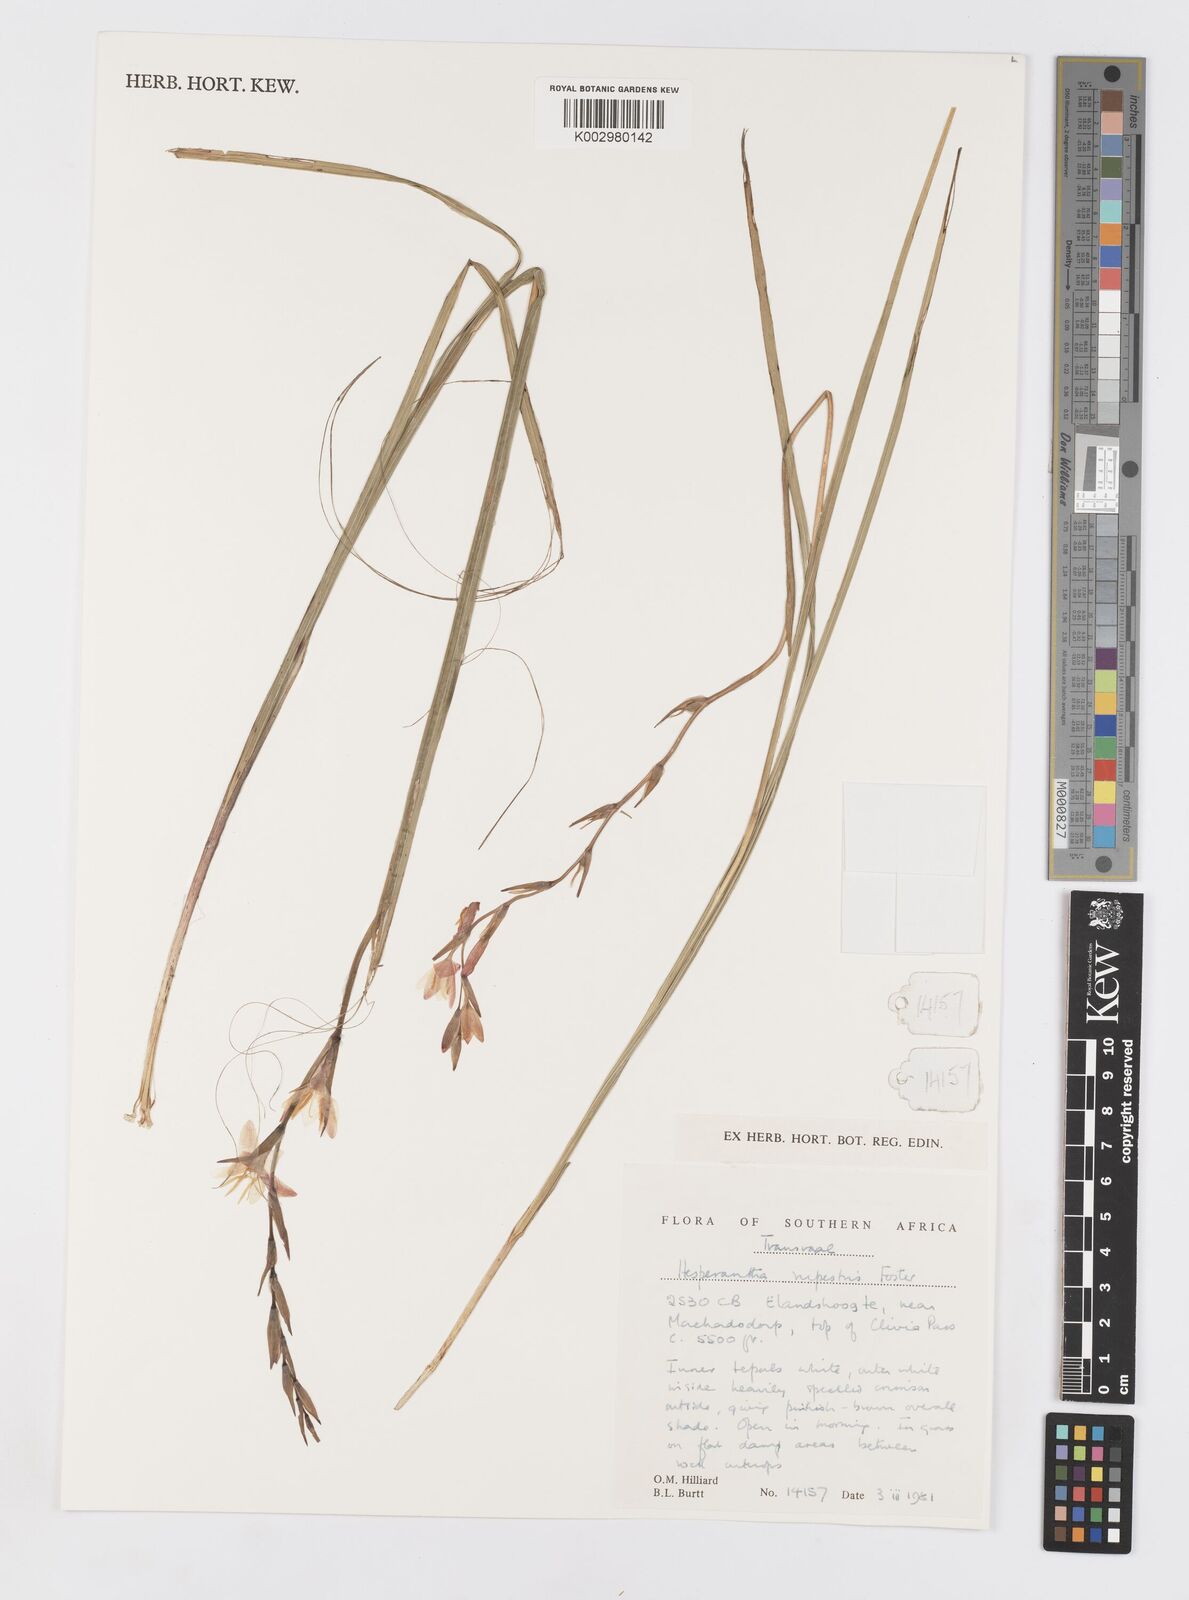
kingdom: Plantae
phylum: Tracheophyta
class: Liliopsida
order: Asparagales
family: Iridaceae
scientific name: Iridaceae
